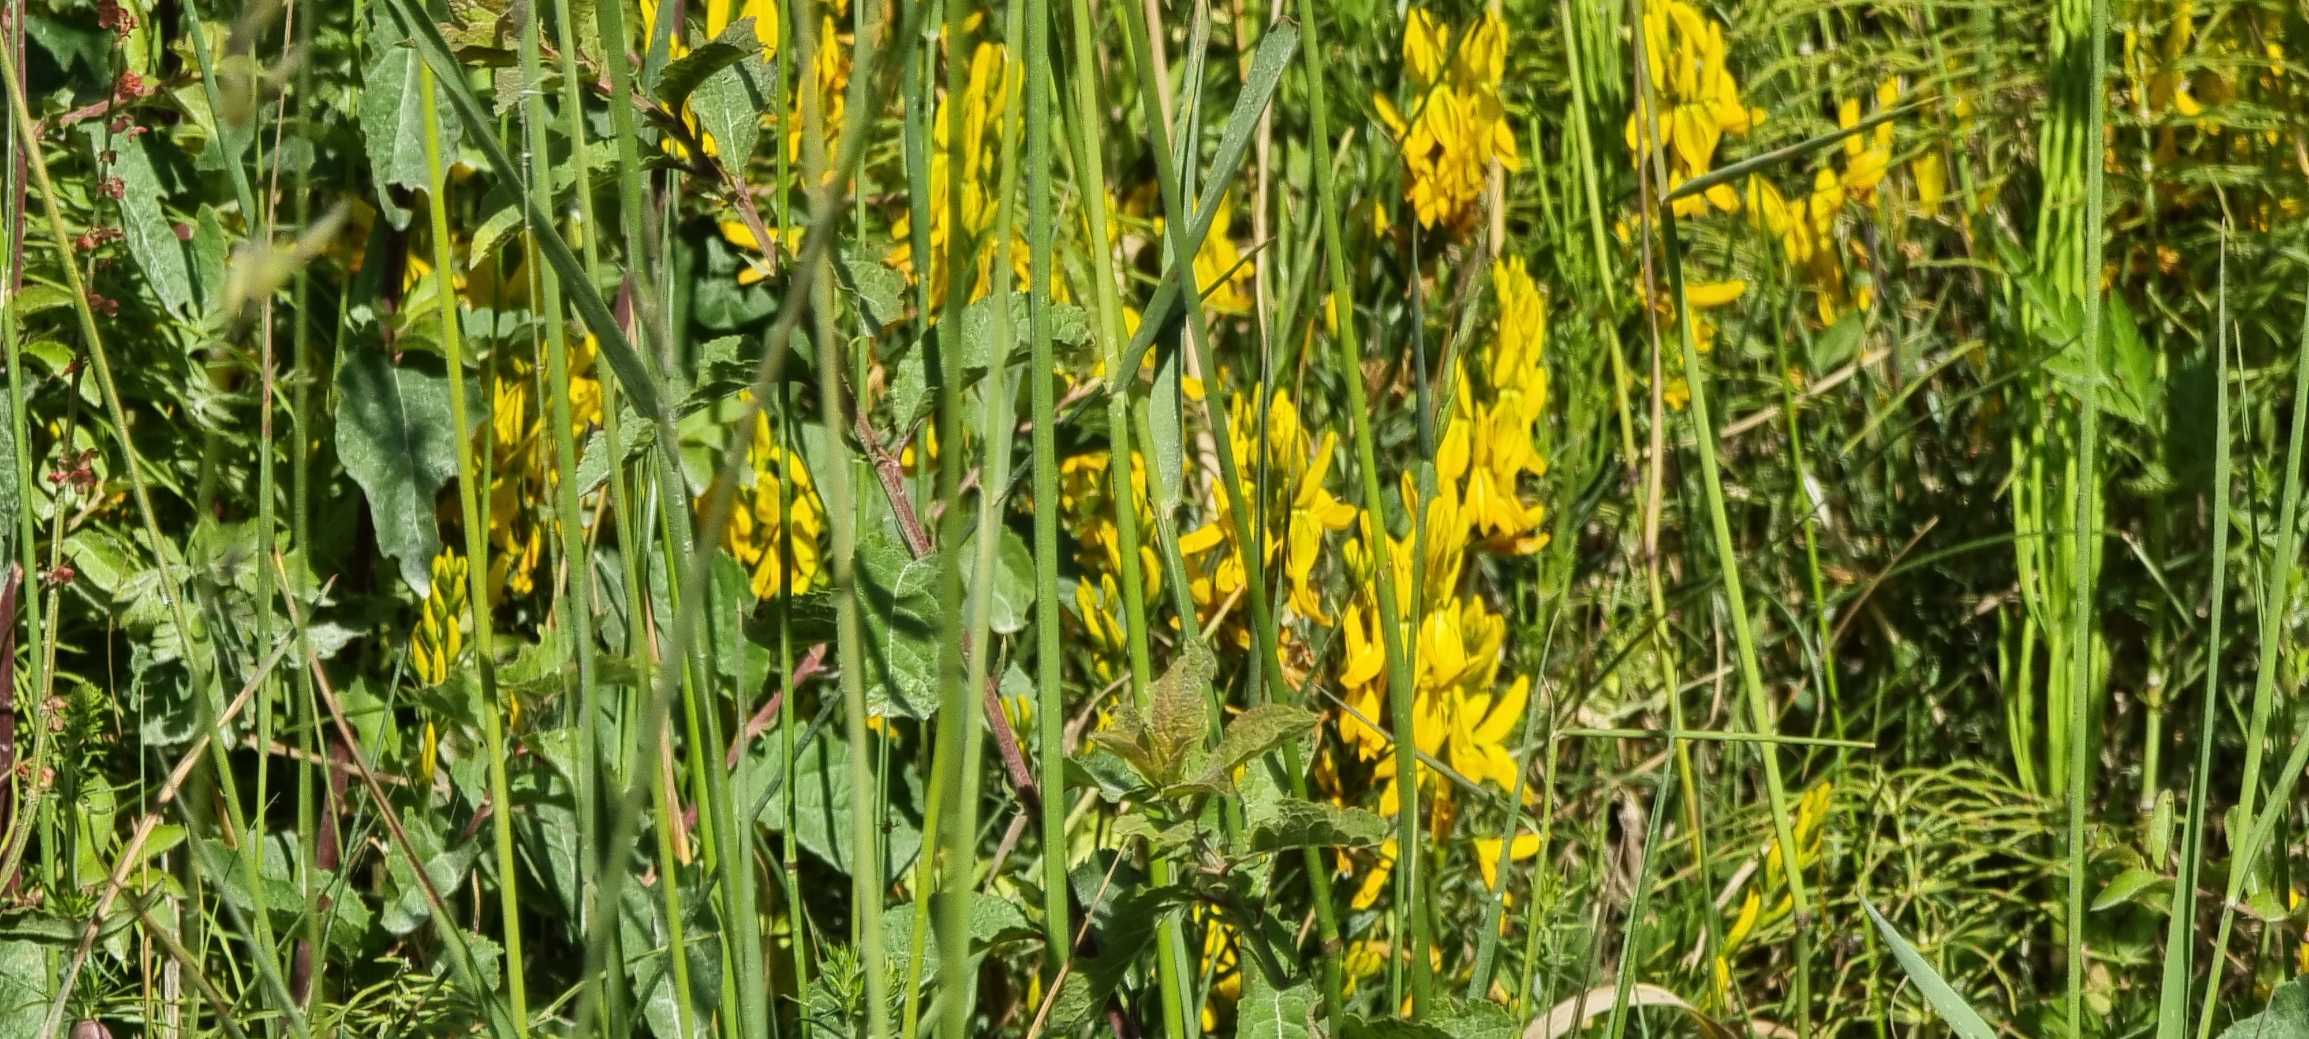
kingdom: Plantae
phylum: Tracheophyta
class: Magnoliopsida
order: Fabales
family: Fabaceae
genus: Genista
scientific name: Genista tinctoria
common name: Farve-visse
